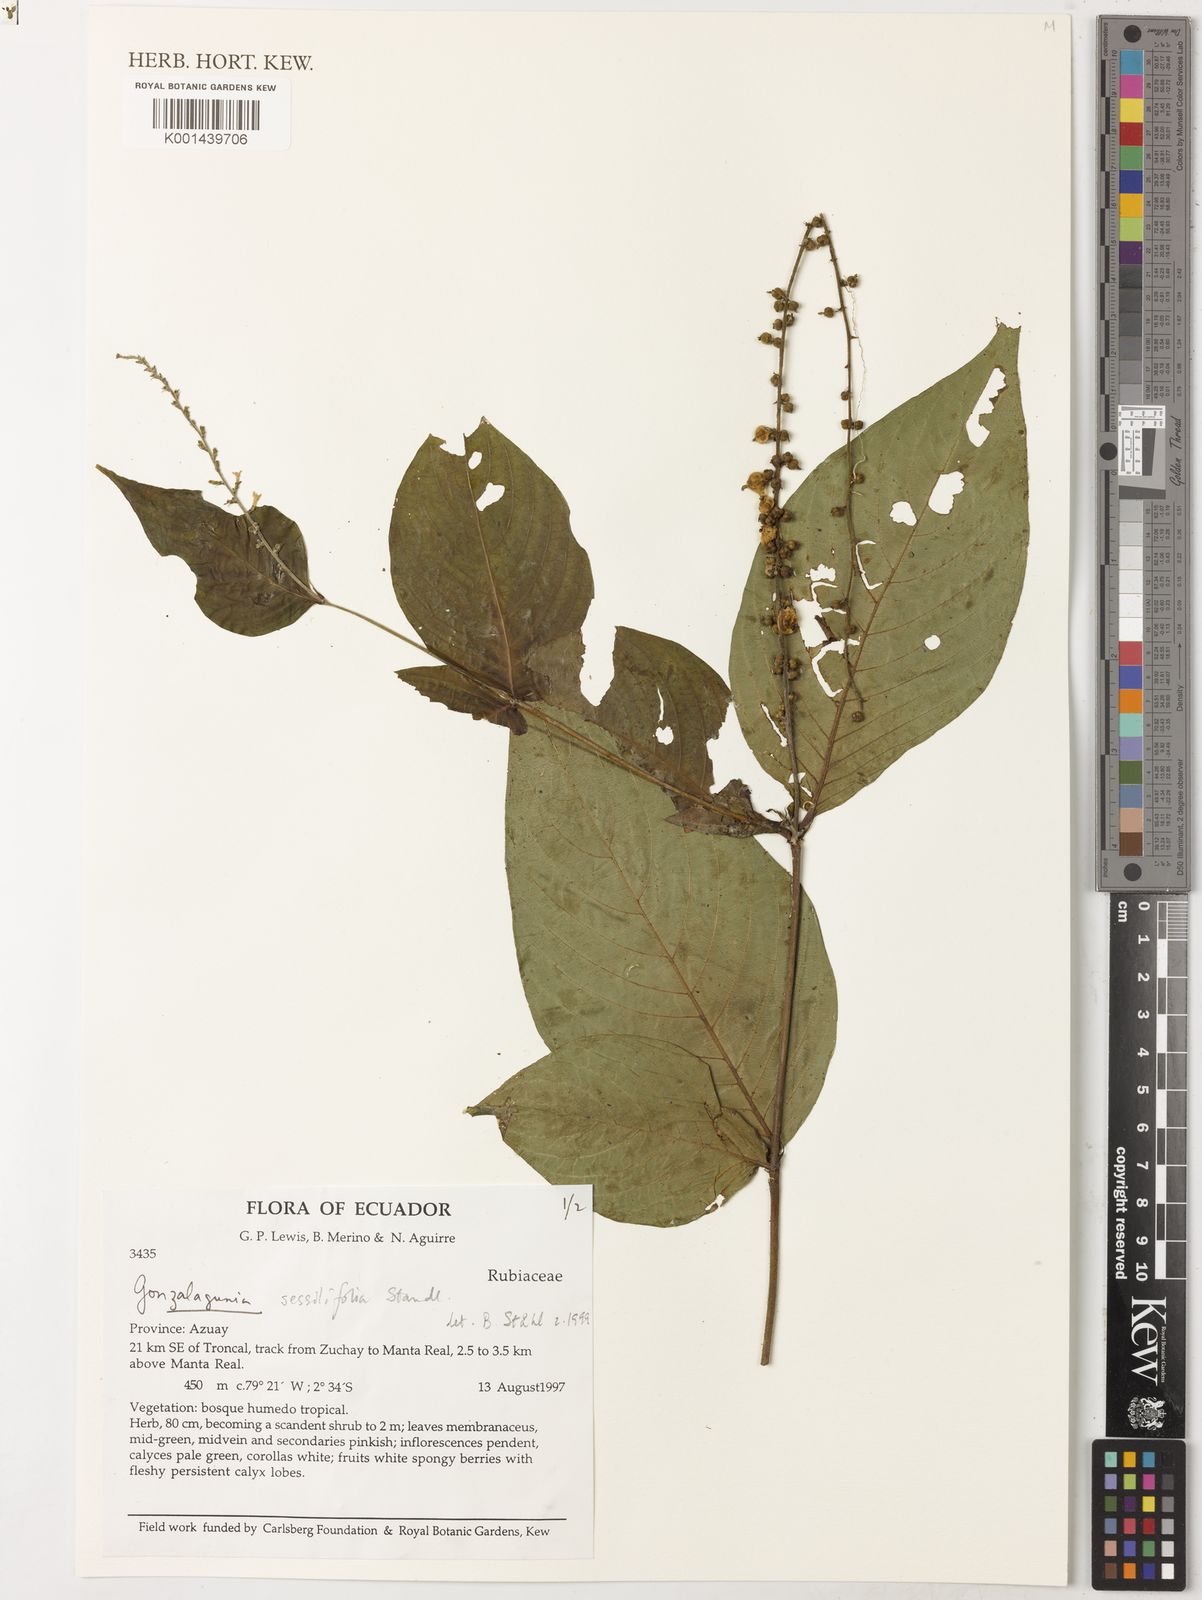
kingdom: Plantae
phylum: Tracheophyta
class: Magnoliopsida
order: Gentianales
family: Rubiaceae
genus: Gonzalagunia
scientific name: Gonzalagunia
